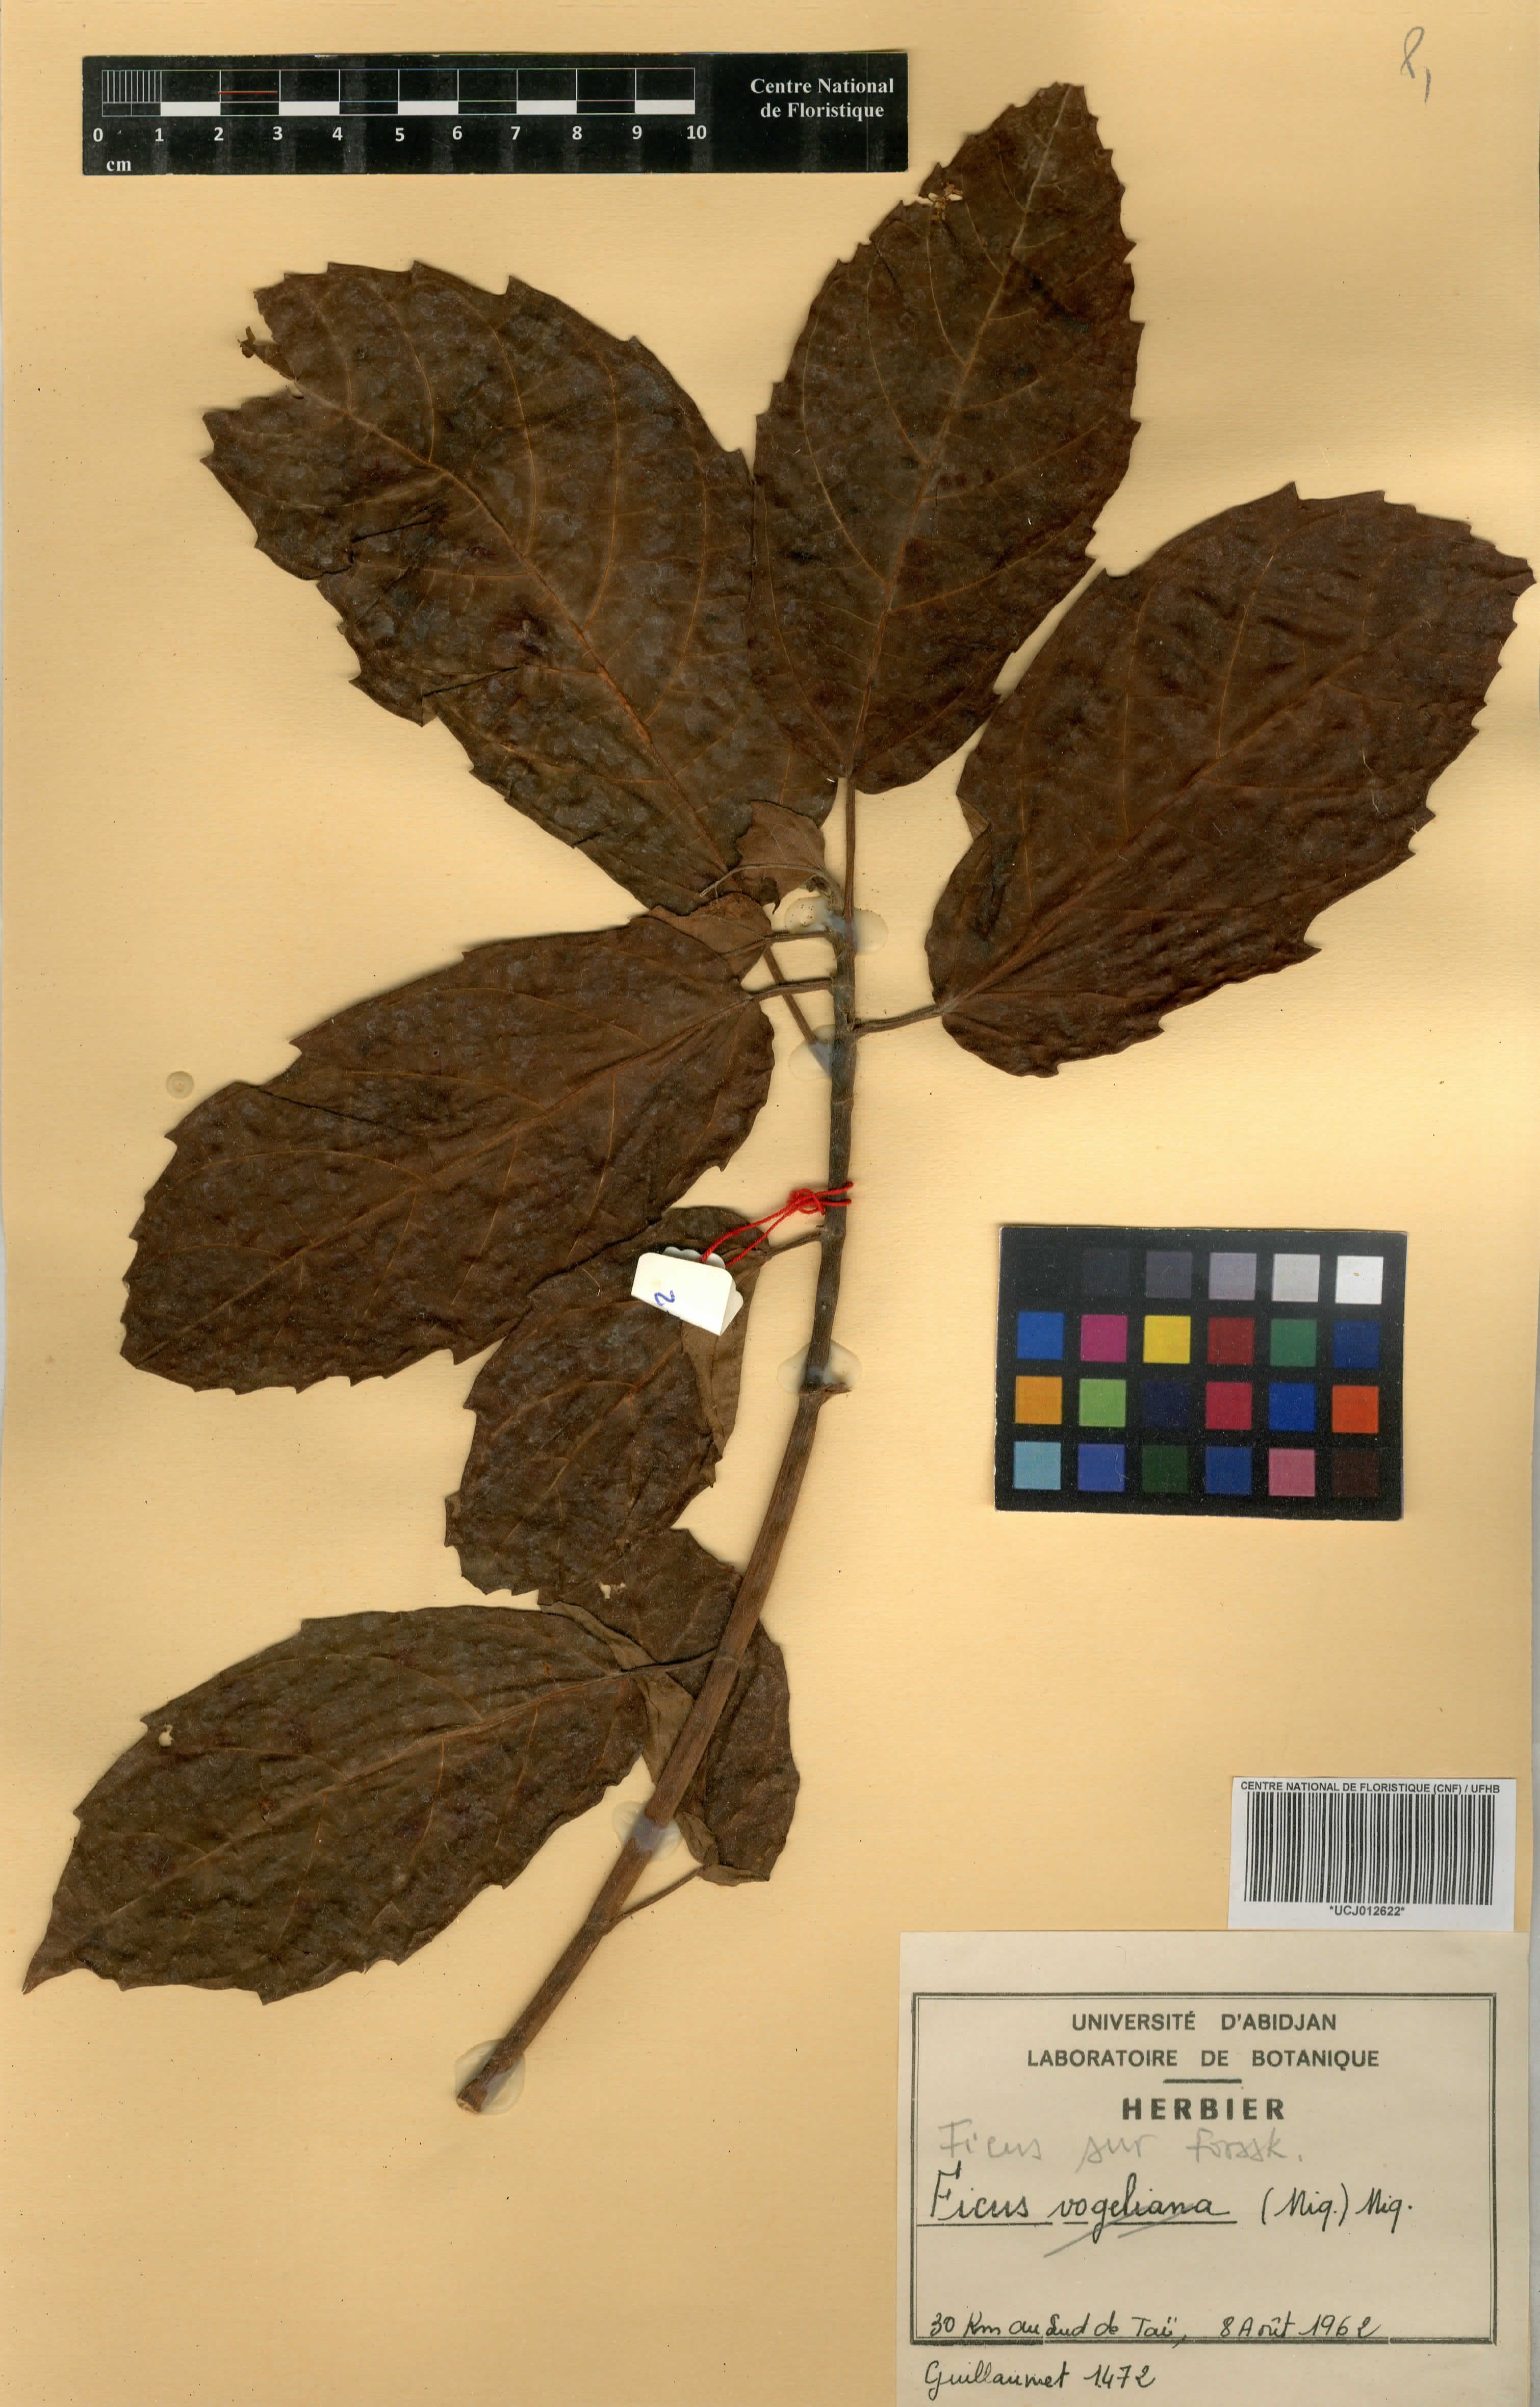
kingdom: Plantae
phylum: Tracheophyta
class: Magnoliopsida
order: Rosales
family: Moraceae
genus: Ficus
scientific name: Ficus sur
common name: Cape fig
